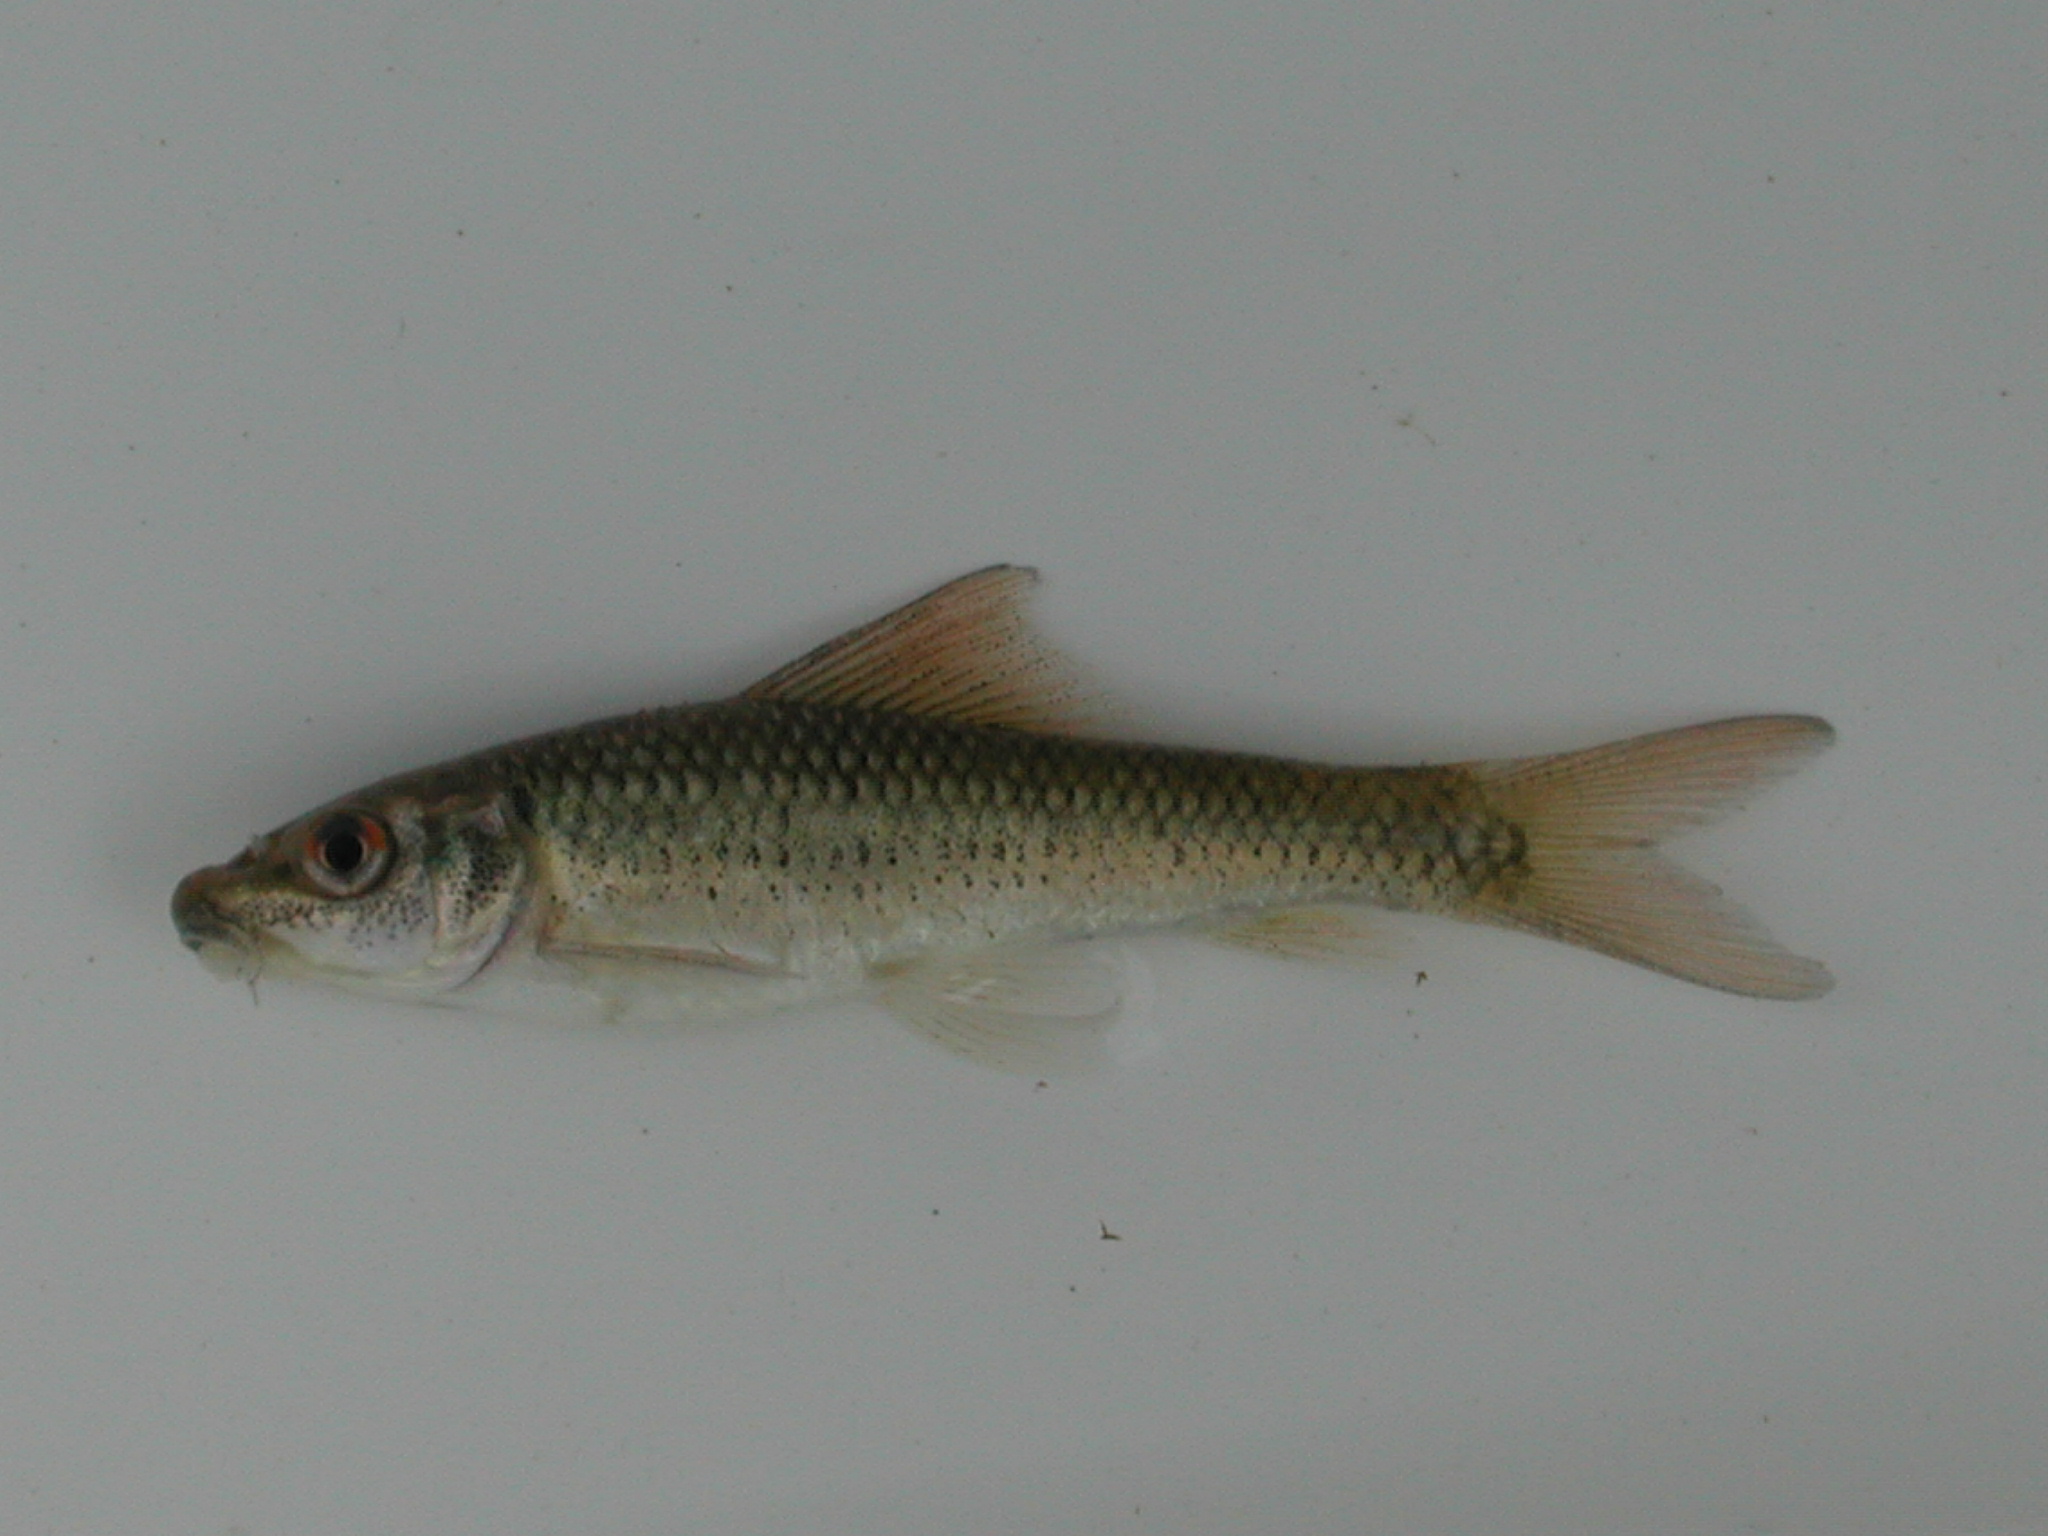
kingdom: Animalia
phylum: Chordata
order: Cypriniformes
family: Cyprinidae
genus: Labeo
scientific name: Labeo cylindricus
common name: Redeye labeo
